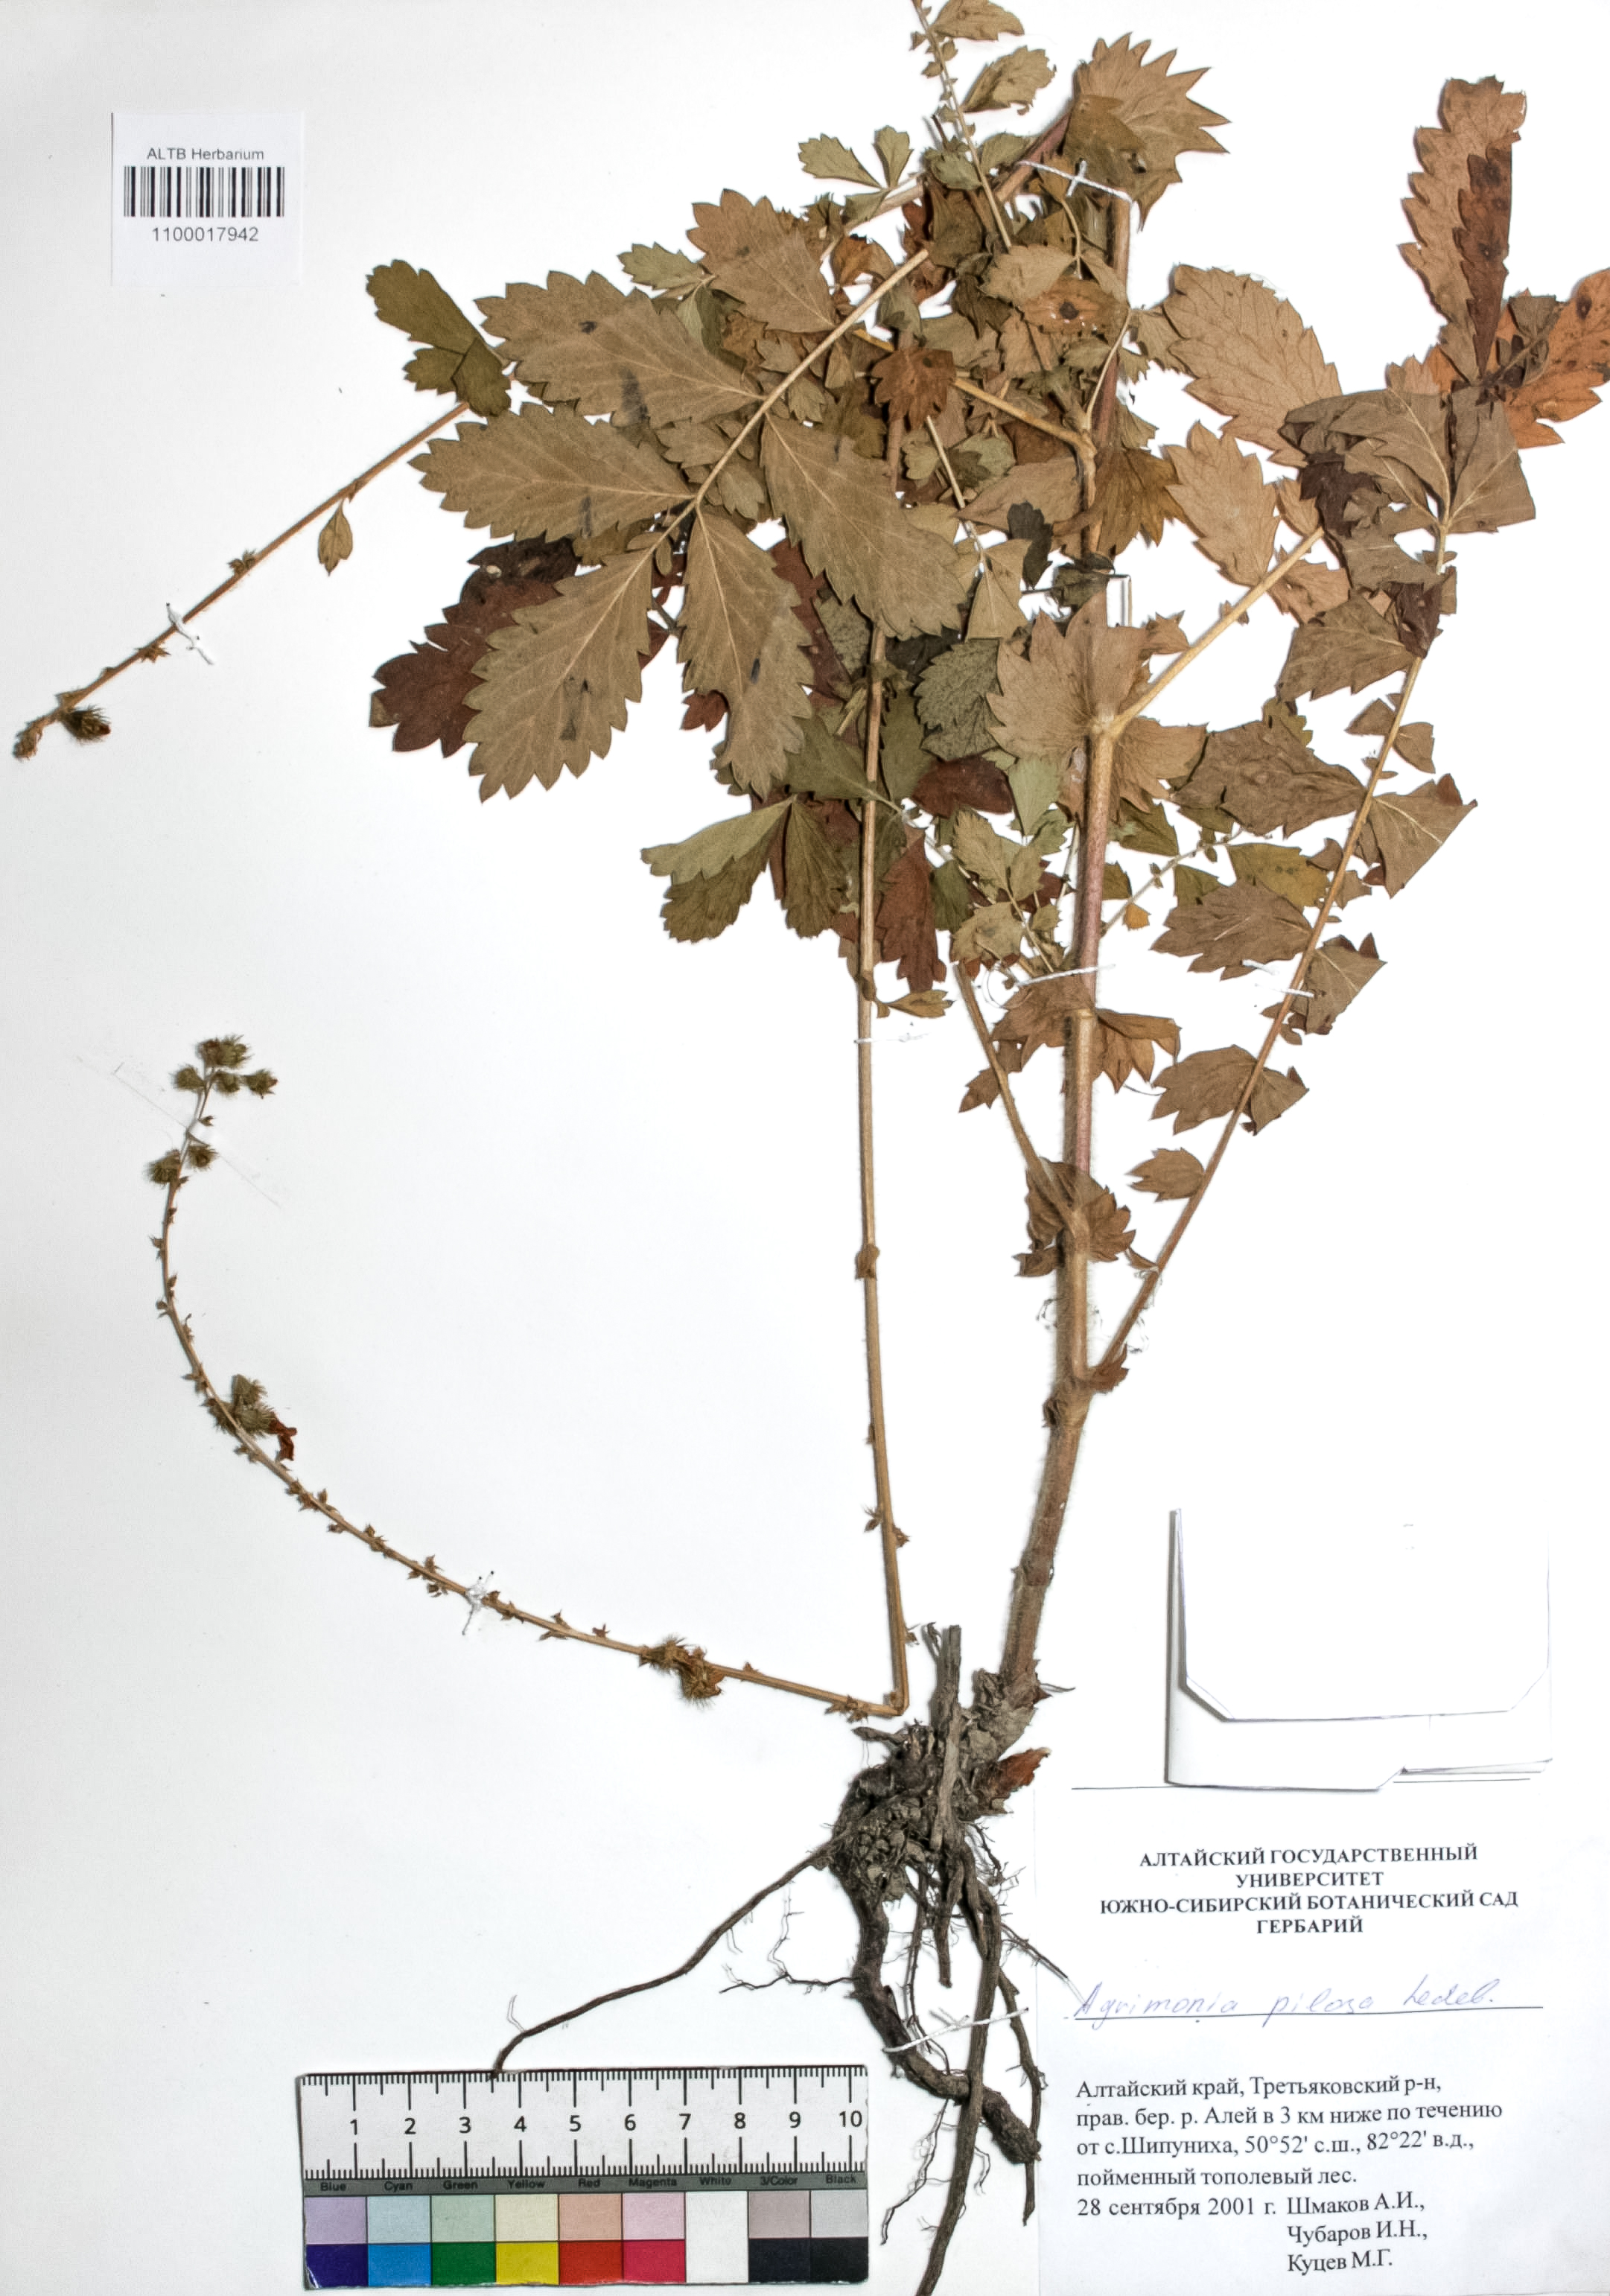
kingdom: Plantae
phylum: Tracheophyta
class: Magnoliopsida
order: Rosales
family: Rosaceae
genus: Agrimonia
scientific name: Agrimonia pilosa
